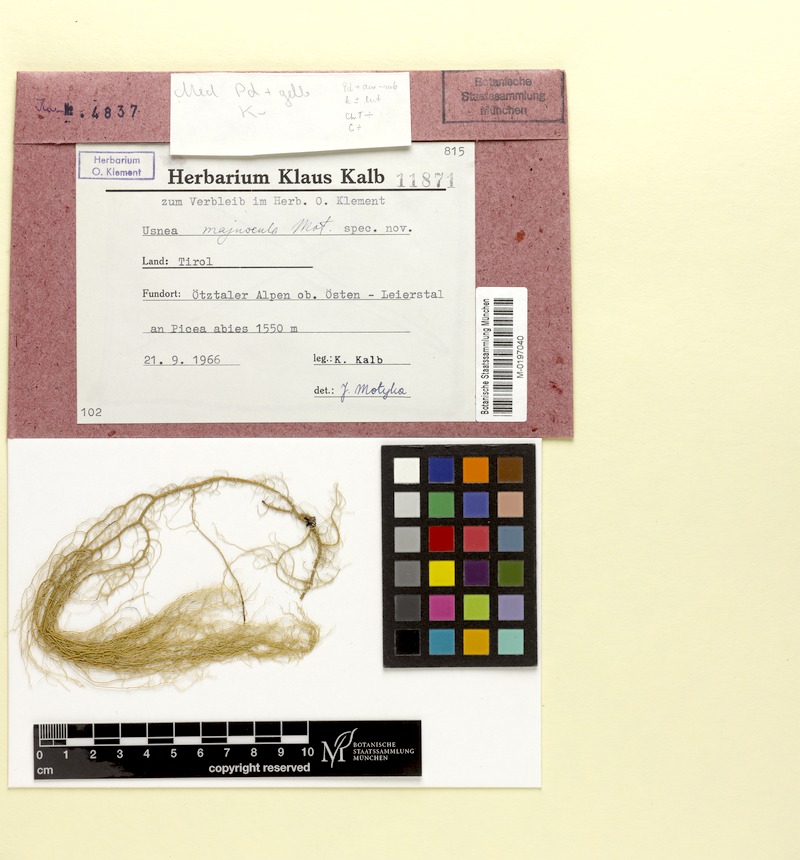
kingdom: Fungi
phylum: Ascomycota
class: Lecanoromycetes
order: Lecanorales
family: Parmeliaceae
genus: Usnea
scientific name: Usnea
